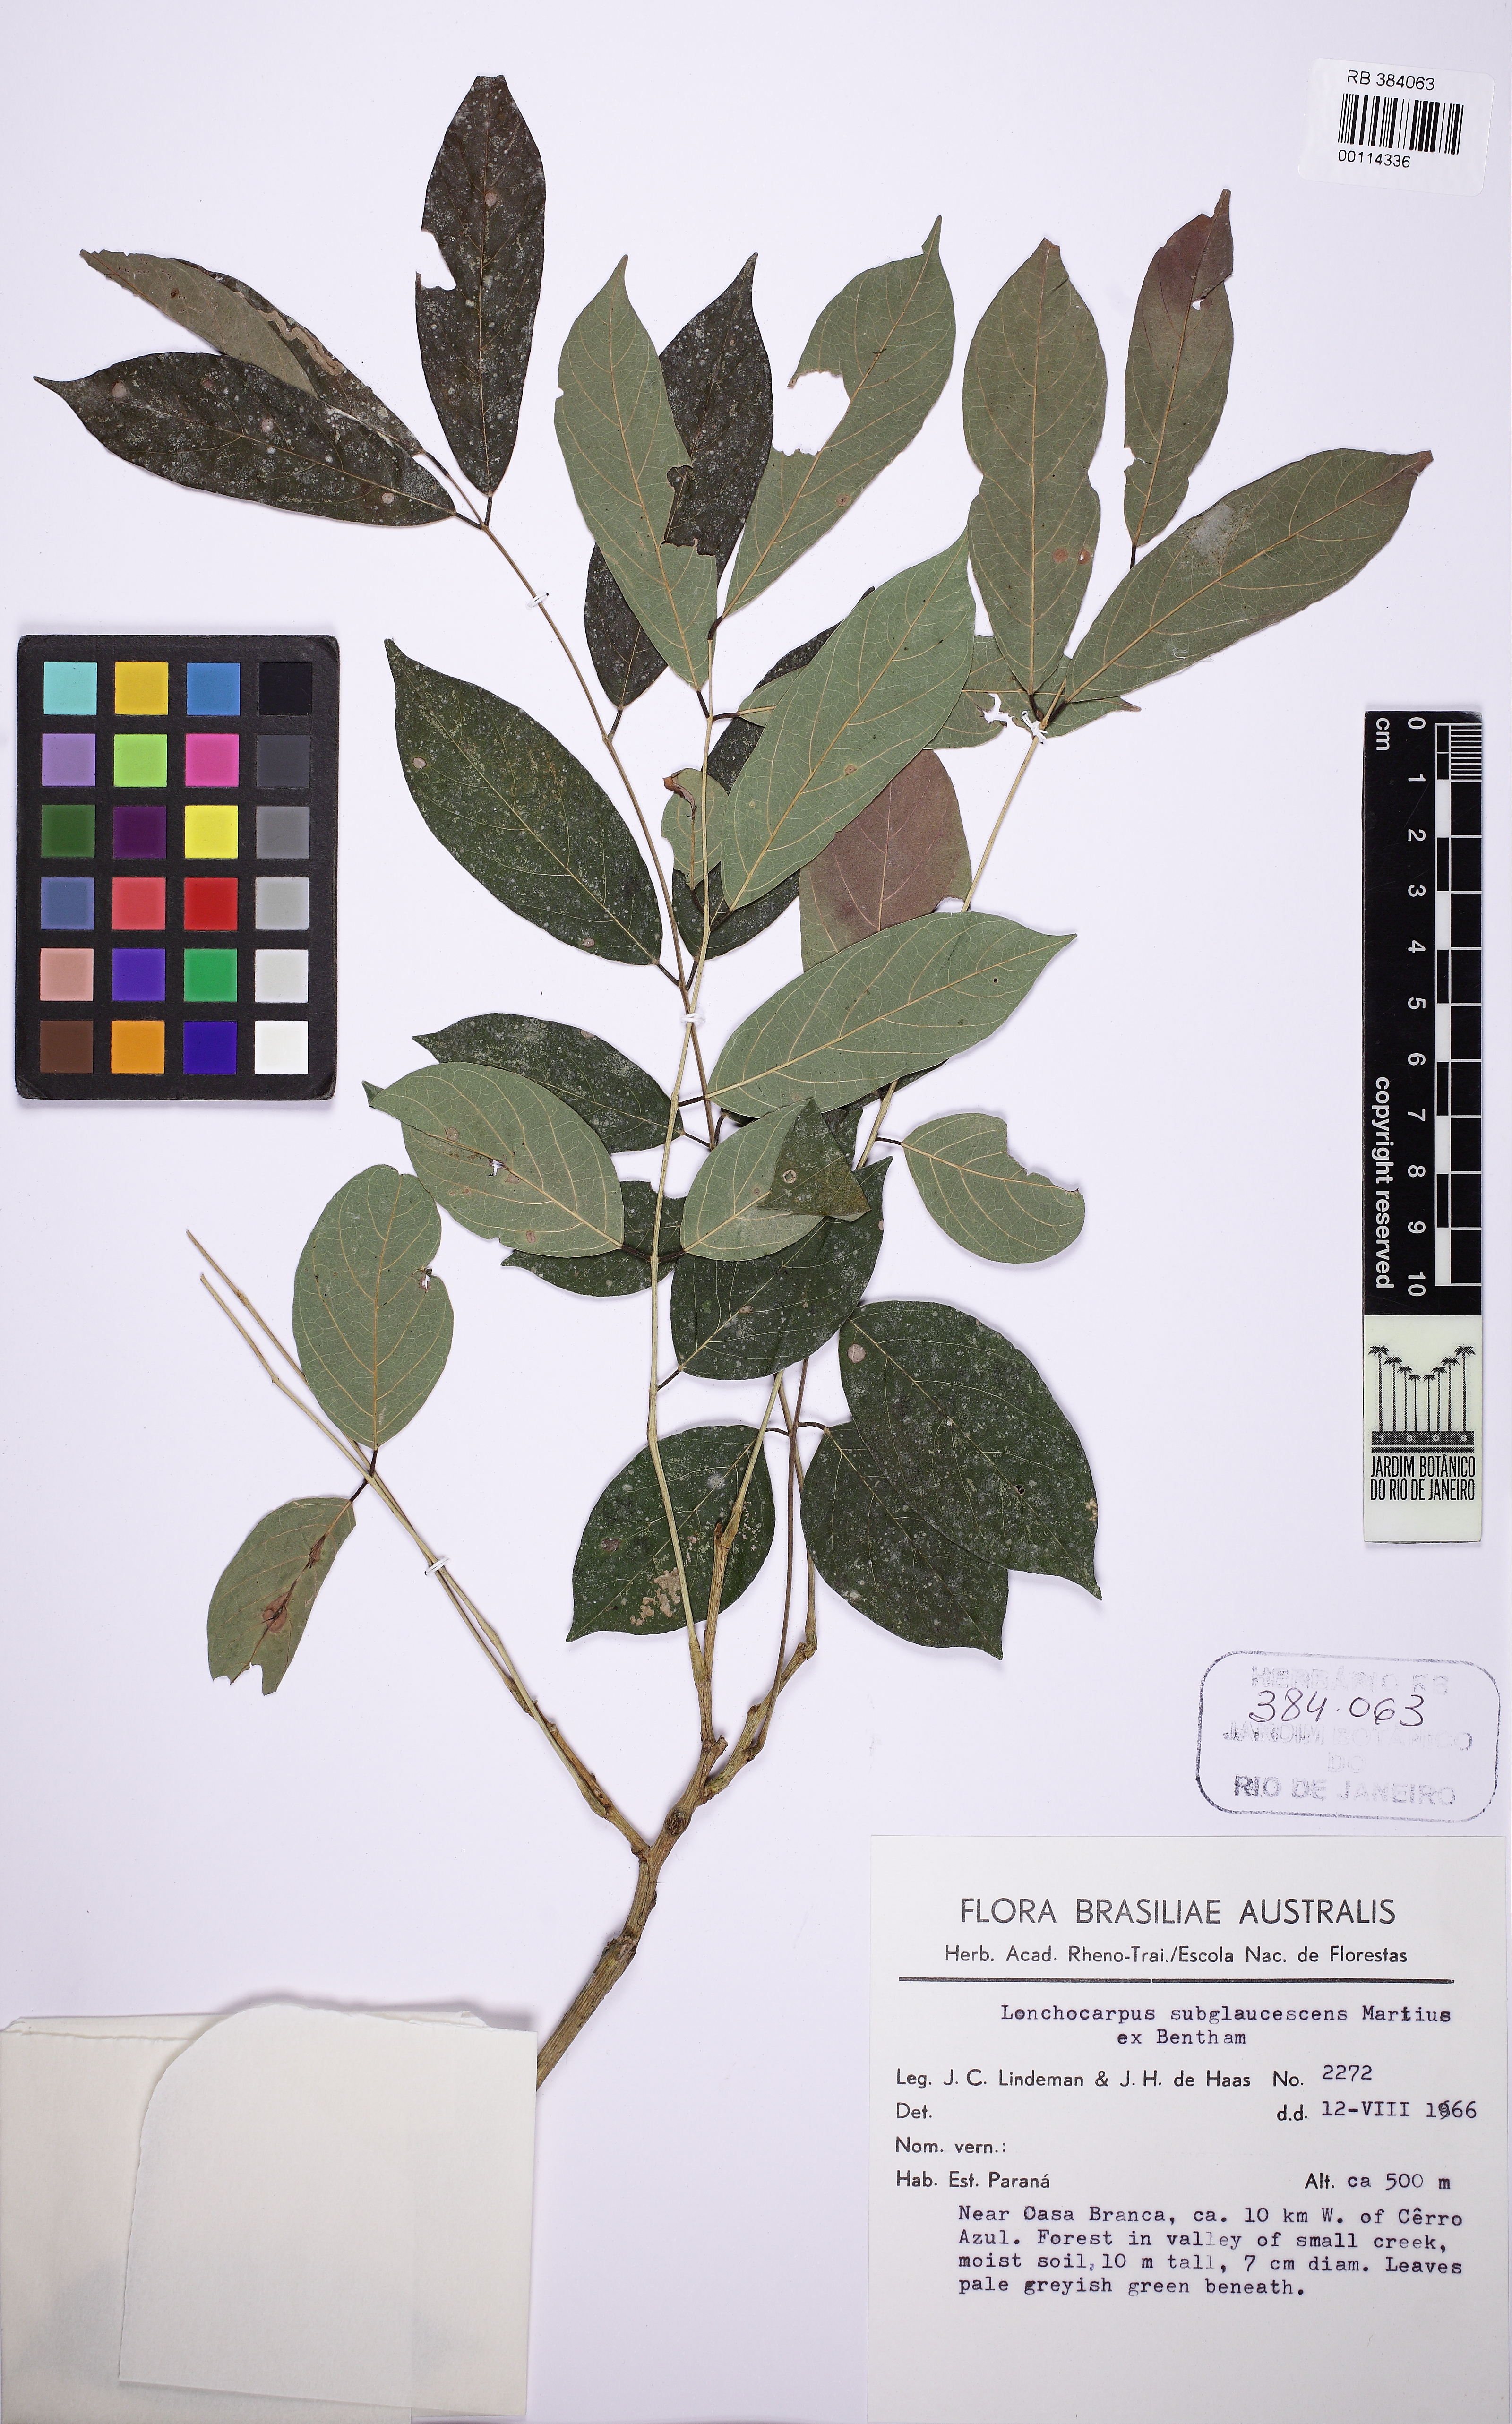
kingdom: Plantae
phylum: Tracheophyta
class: Magnoliopsida
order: Fabales
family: Fabaceae
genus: Lonchocarpus
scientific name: Lonchocarpus subglaucescens
